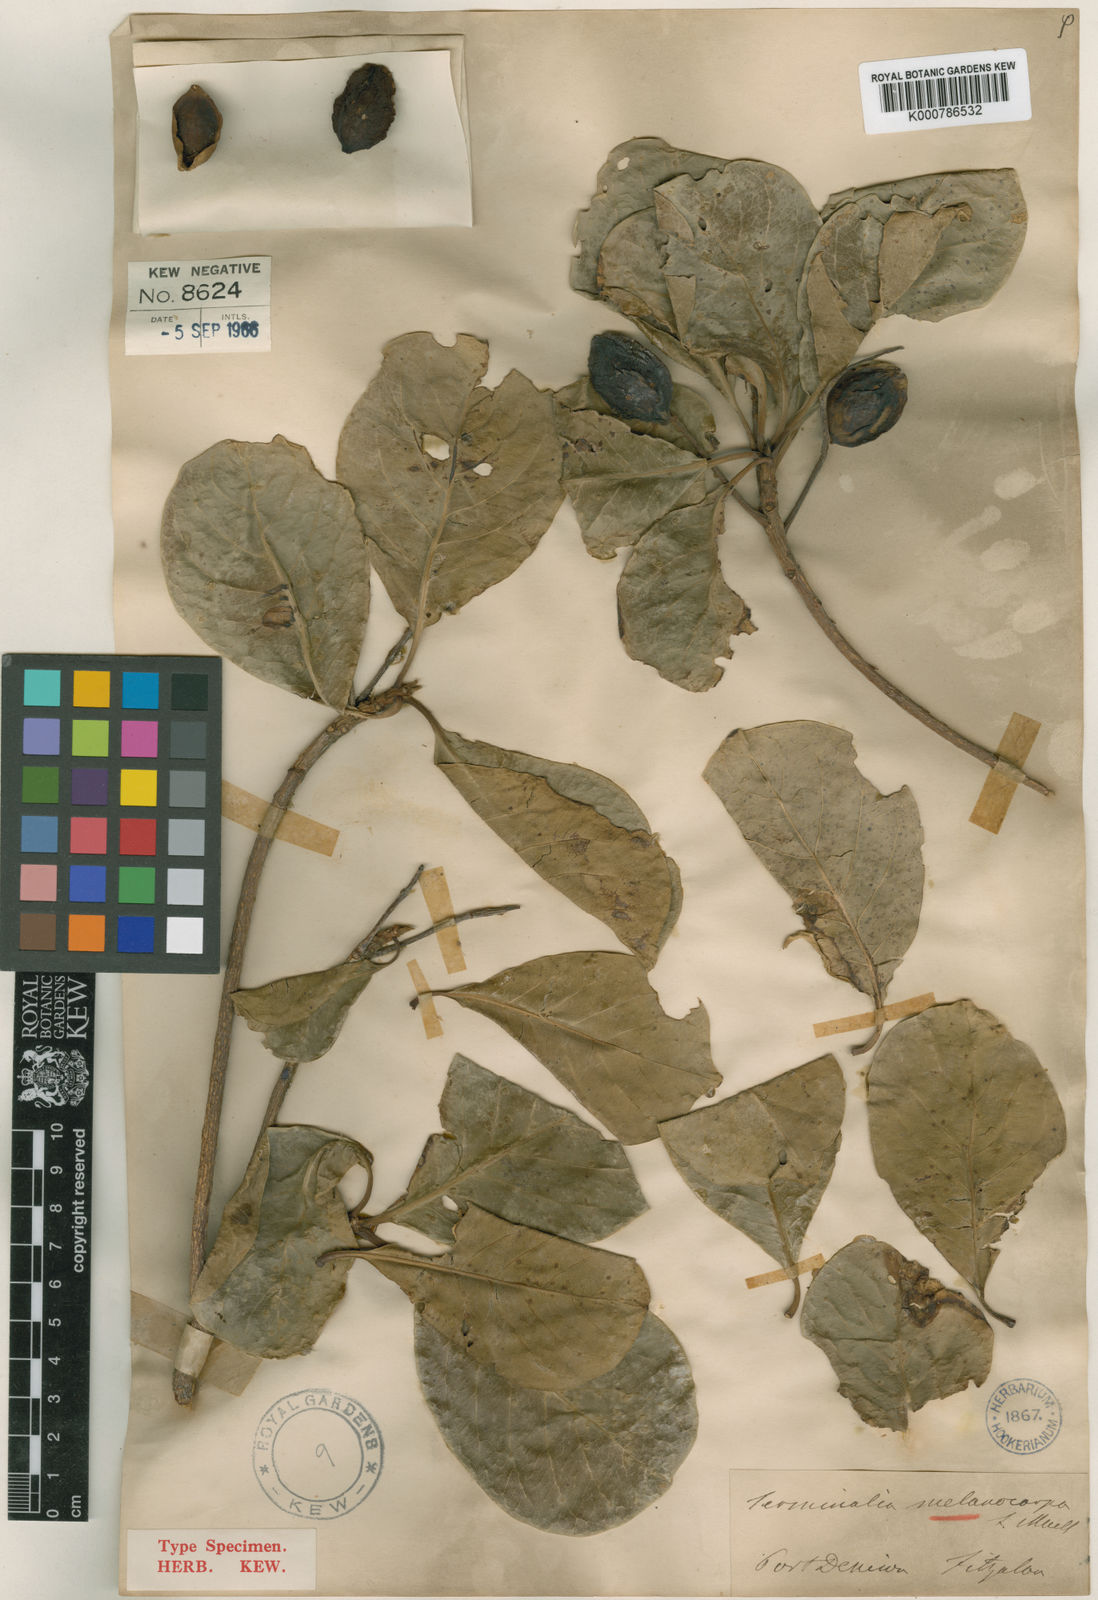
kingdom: Plantae
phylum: Tracheophyta
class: Magnoliopsida
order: Myrtales
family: Combretaceae
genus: Terminalia
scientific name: Terminalia melanocarpa
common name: Beach almond
